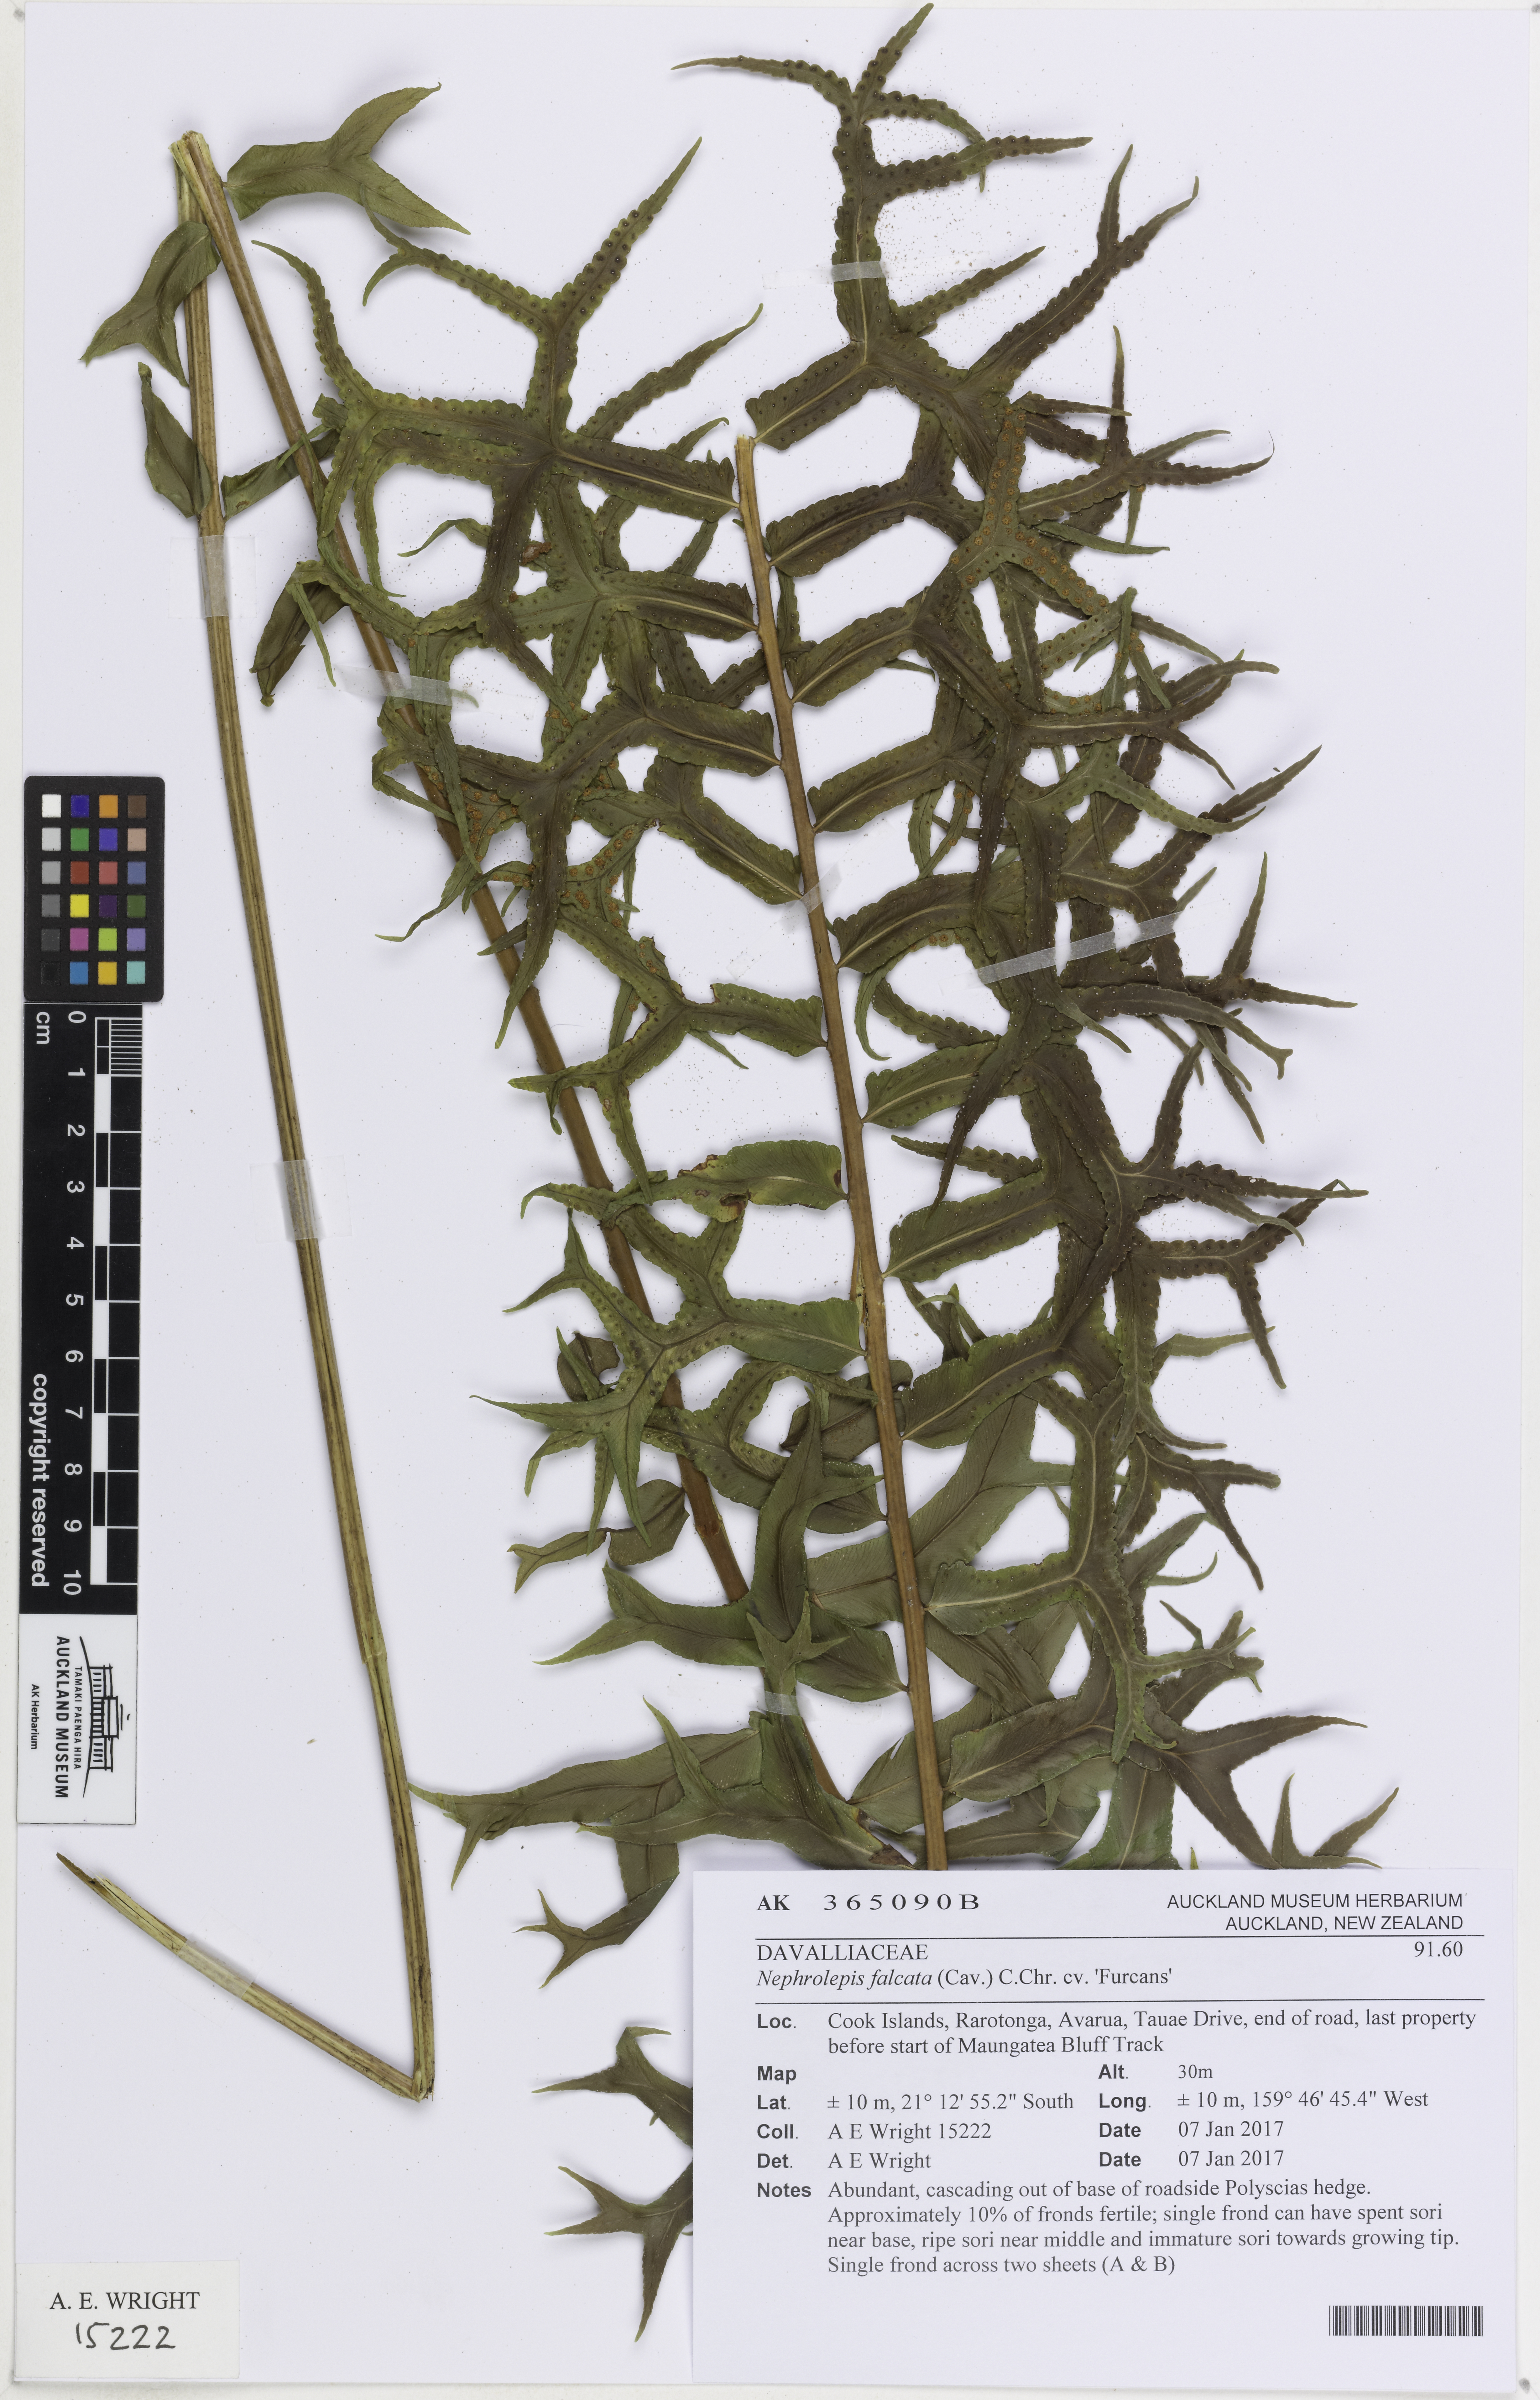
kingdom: Plantae
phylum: Tracheophyta
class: Polypodiopsida
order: Polypodiales
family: Nephrolepidaceae
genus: Nephrolepis
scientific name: Nephrolepis falcata
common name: Fishtail swordfern
